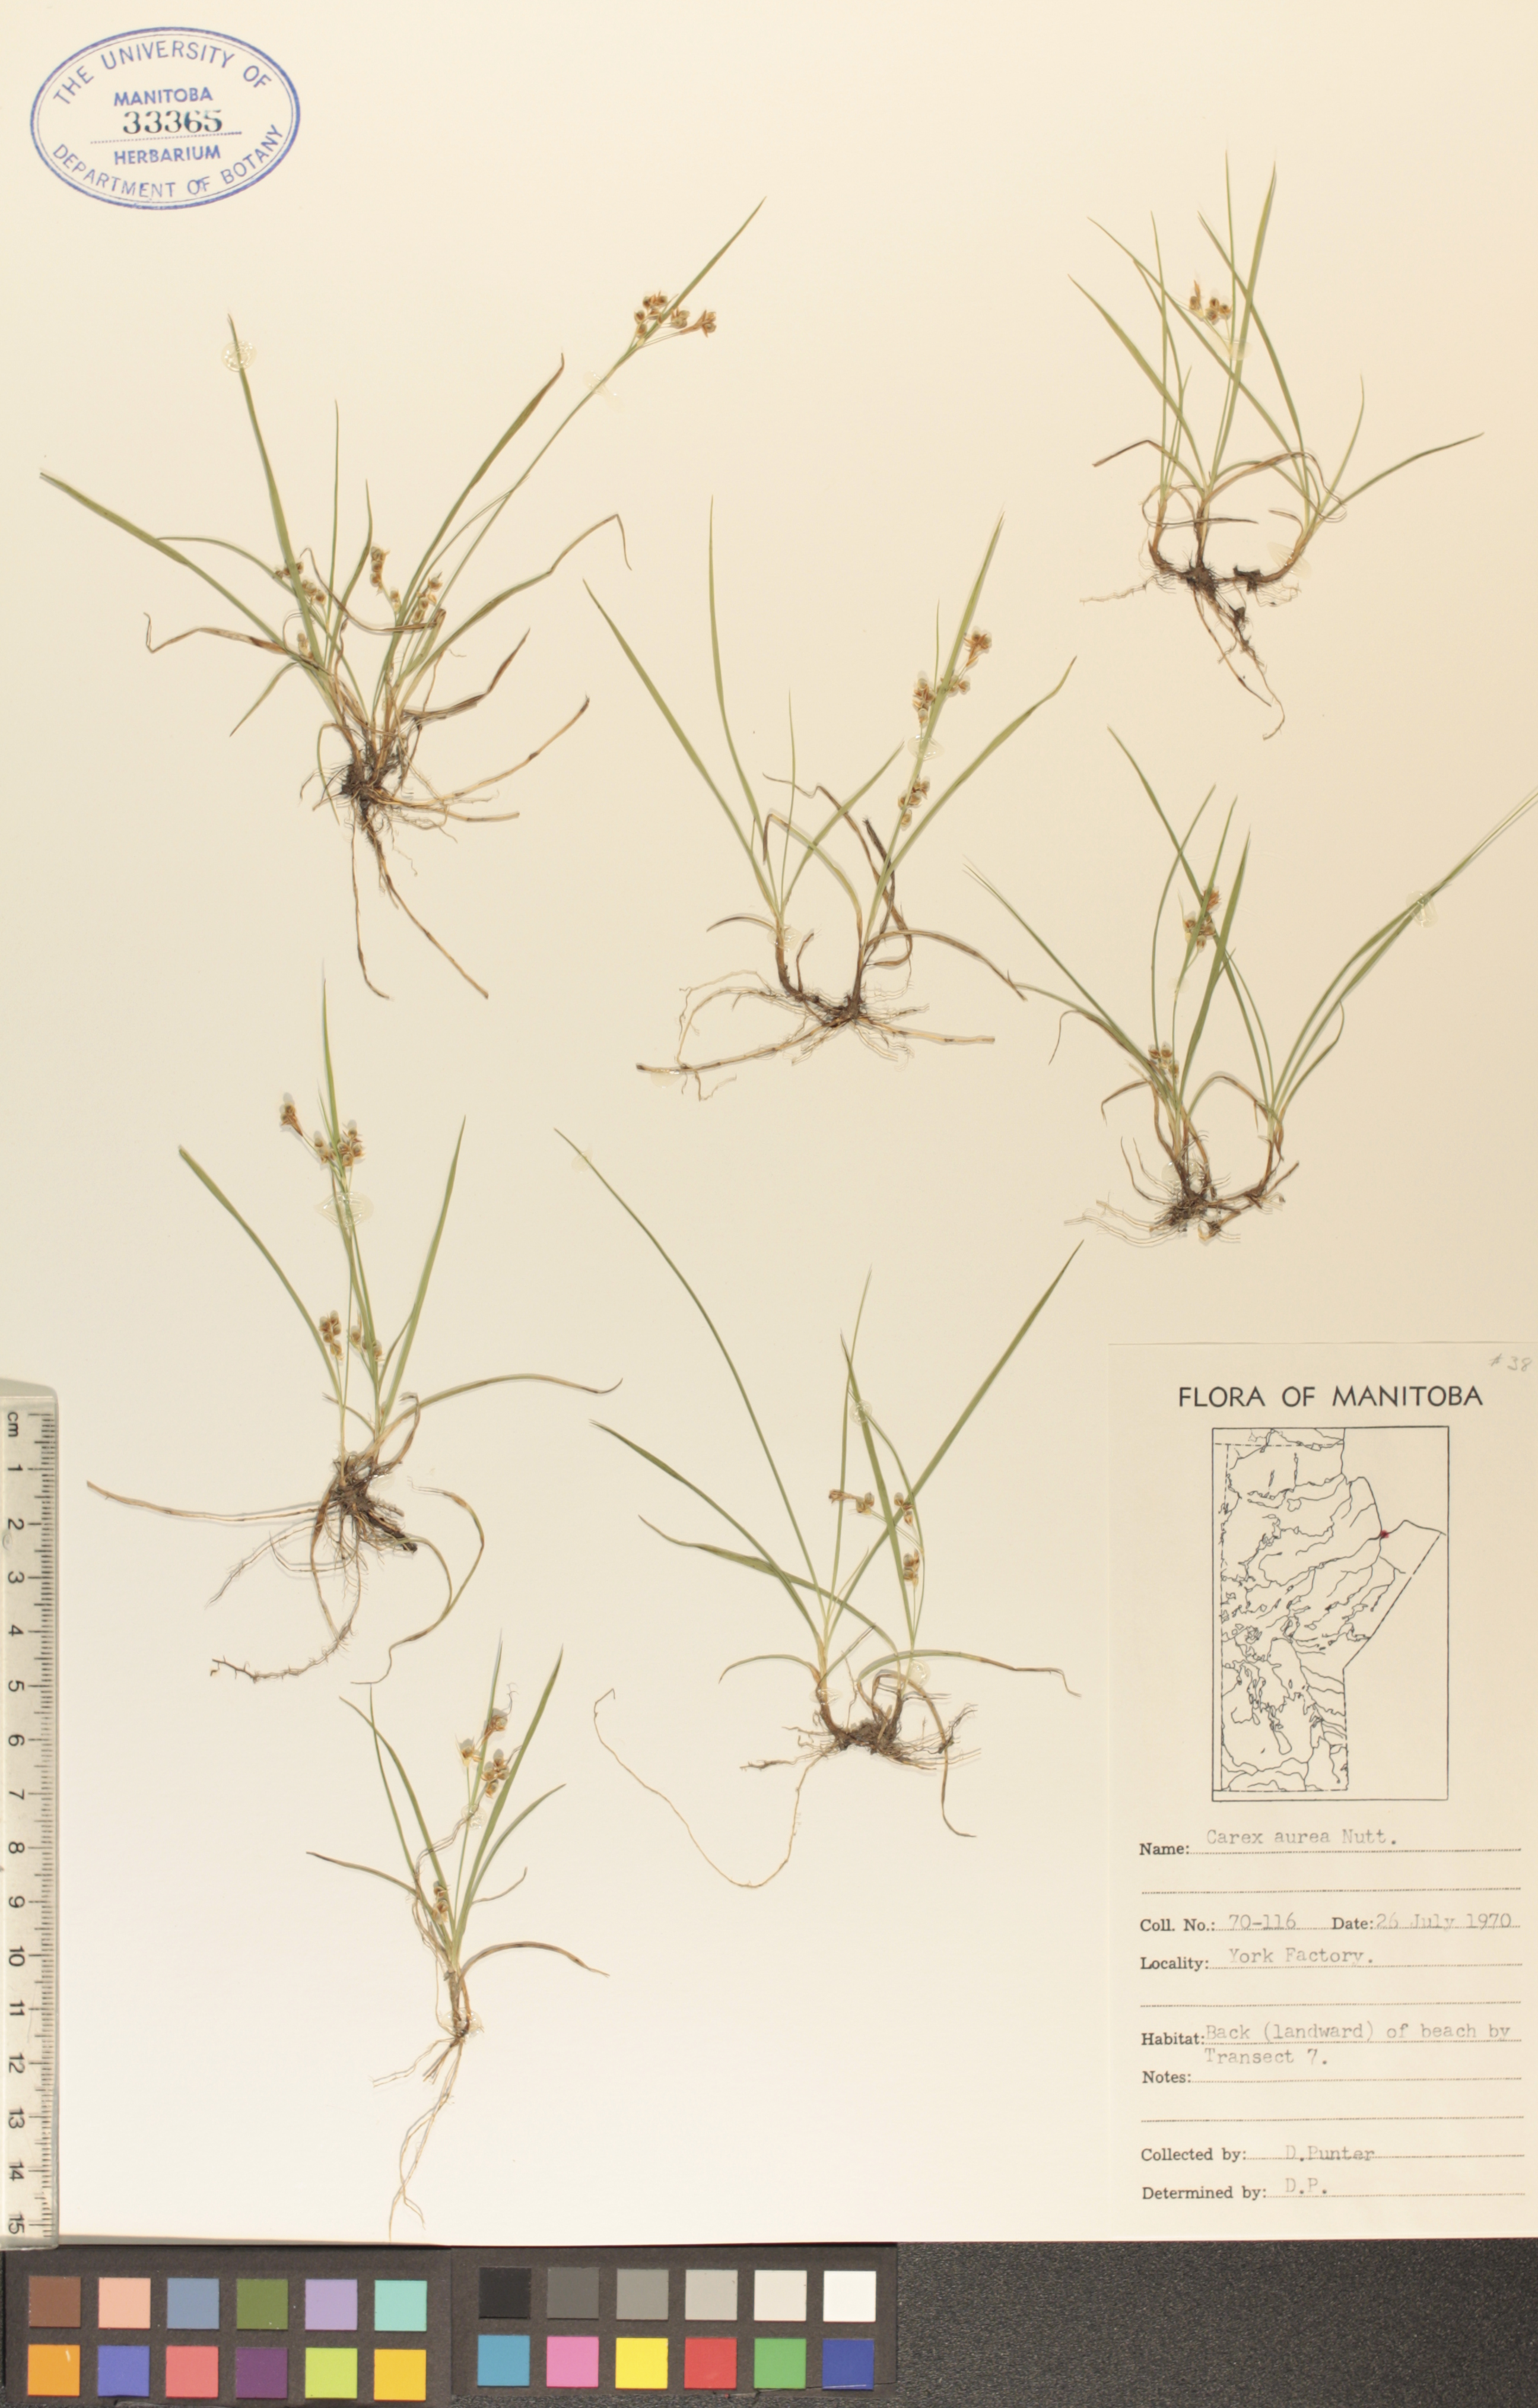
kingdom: Plantae
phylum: Tracheophyta
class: Liliopsida
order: Poales
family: Cyperaceae
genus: Carex
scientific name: Carex aurea
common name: Golden sedge
